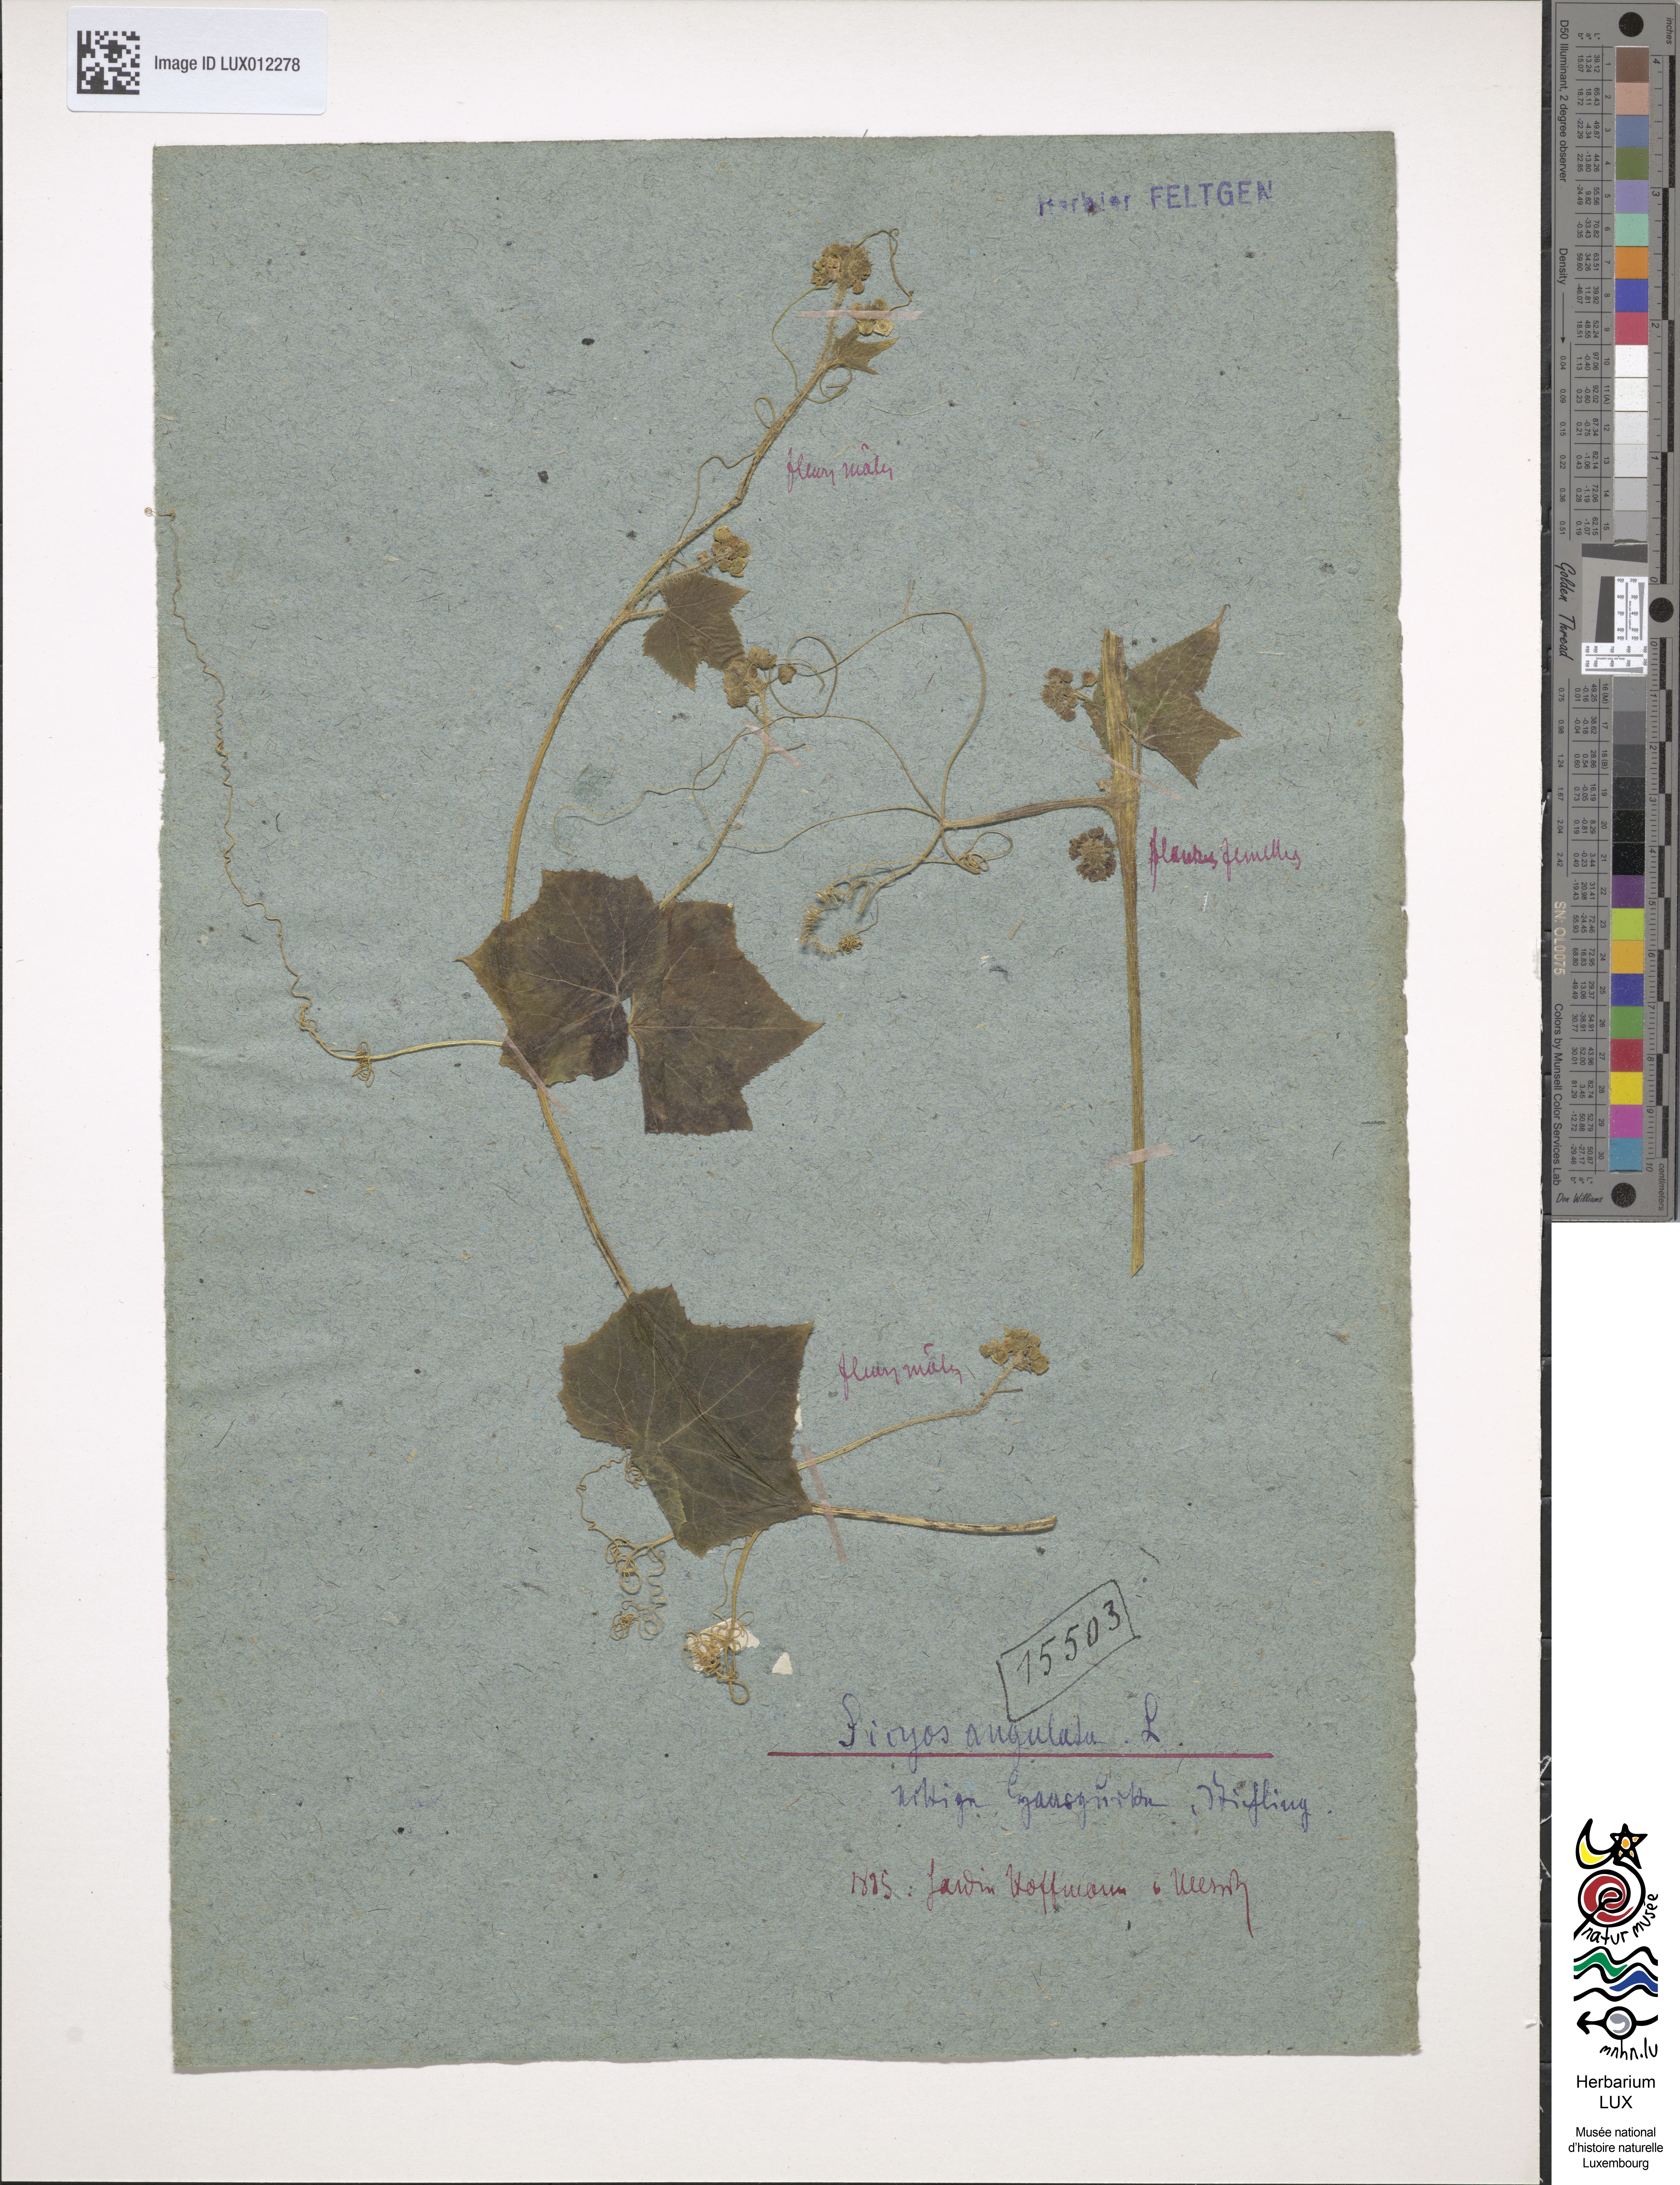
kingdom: Plantae
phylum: Tracheophyta
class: Magnoliopsida
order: Cucurbitales
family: Cucurbitaceae
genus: Sicyos
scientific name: Sicyos angulatus
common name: Angled burr cucumber
